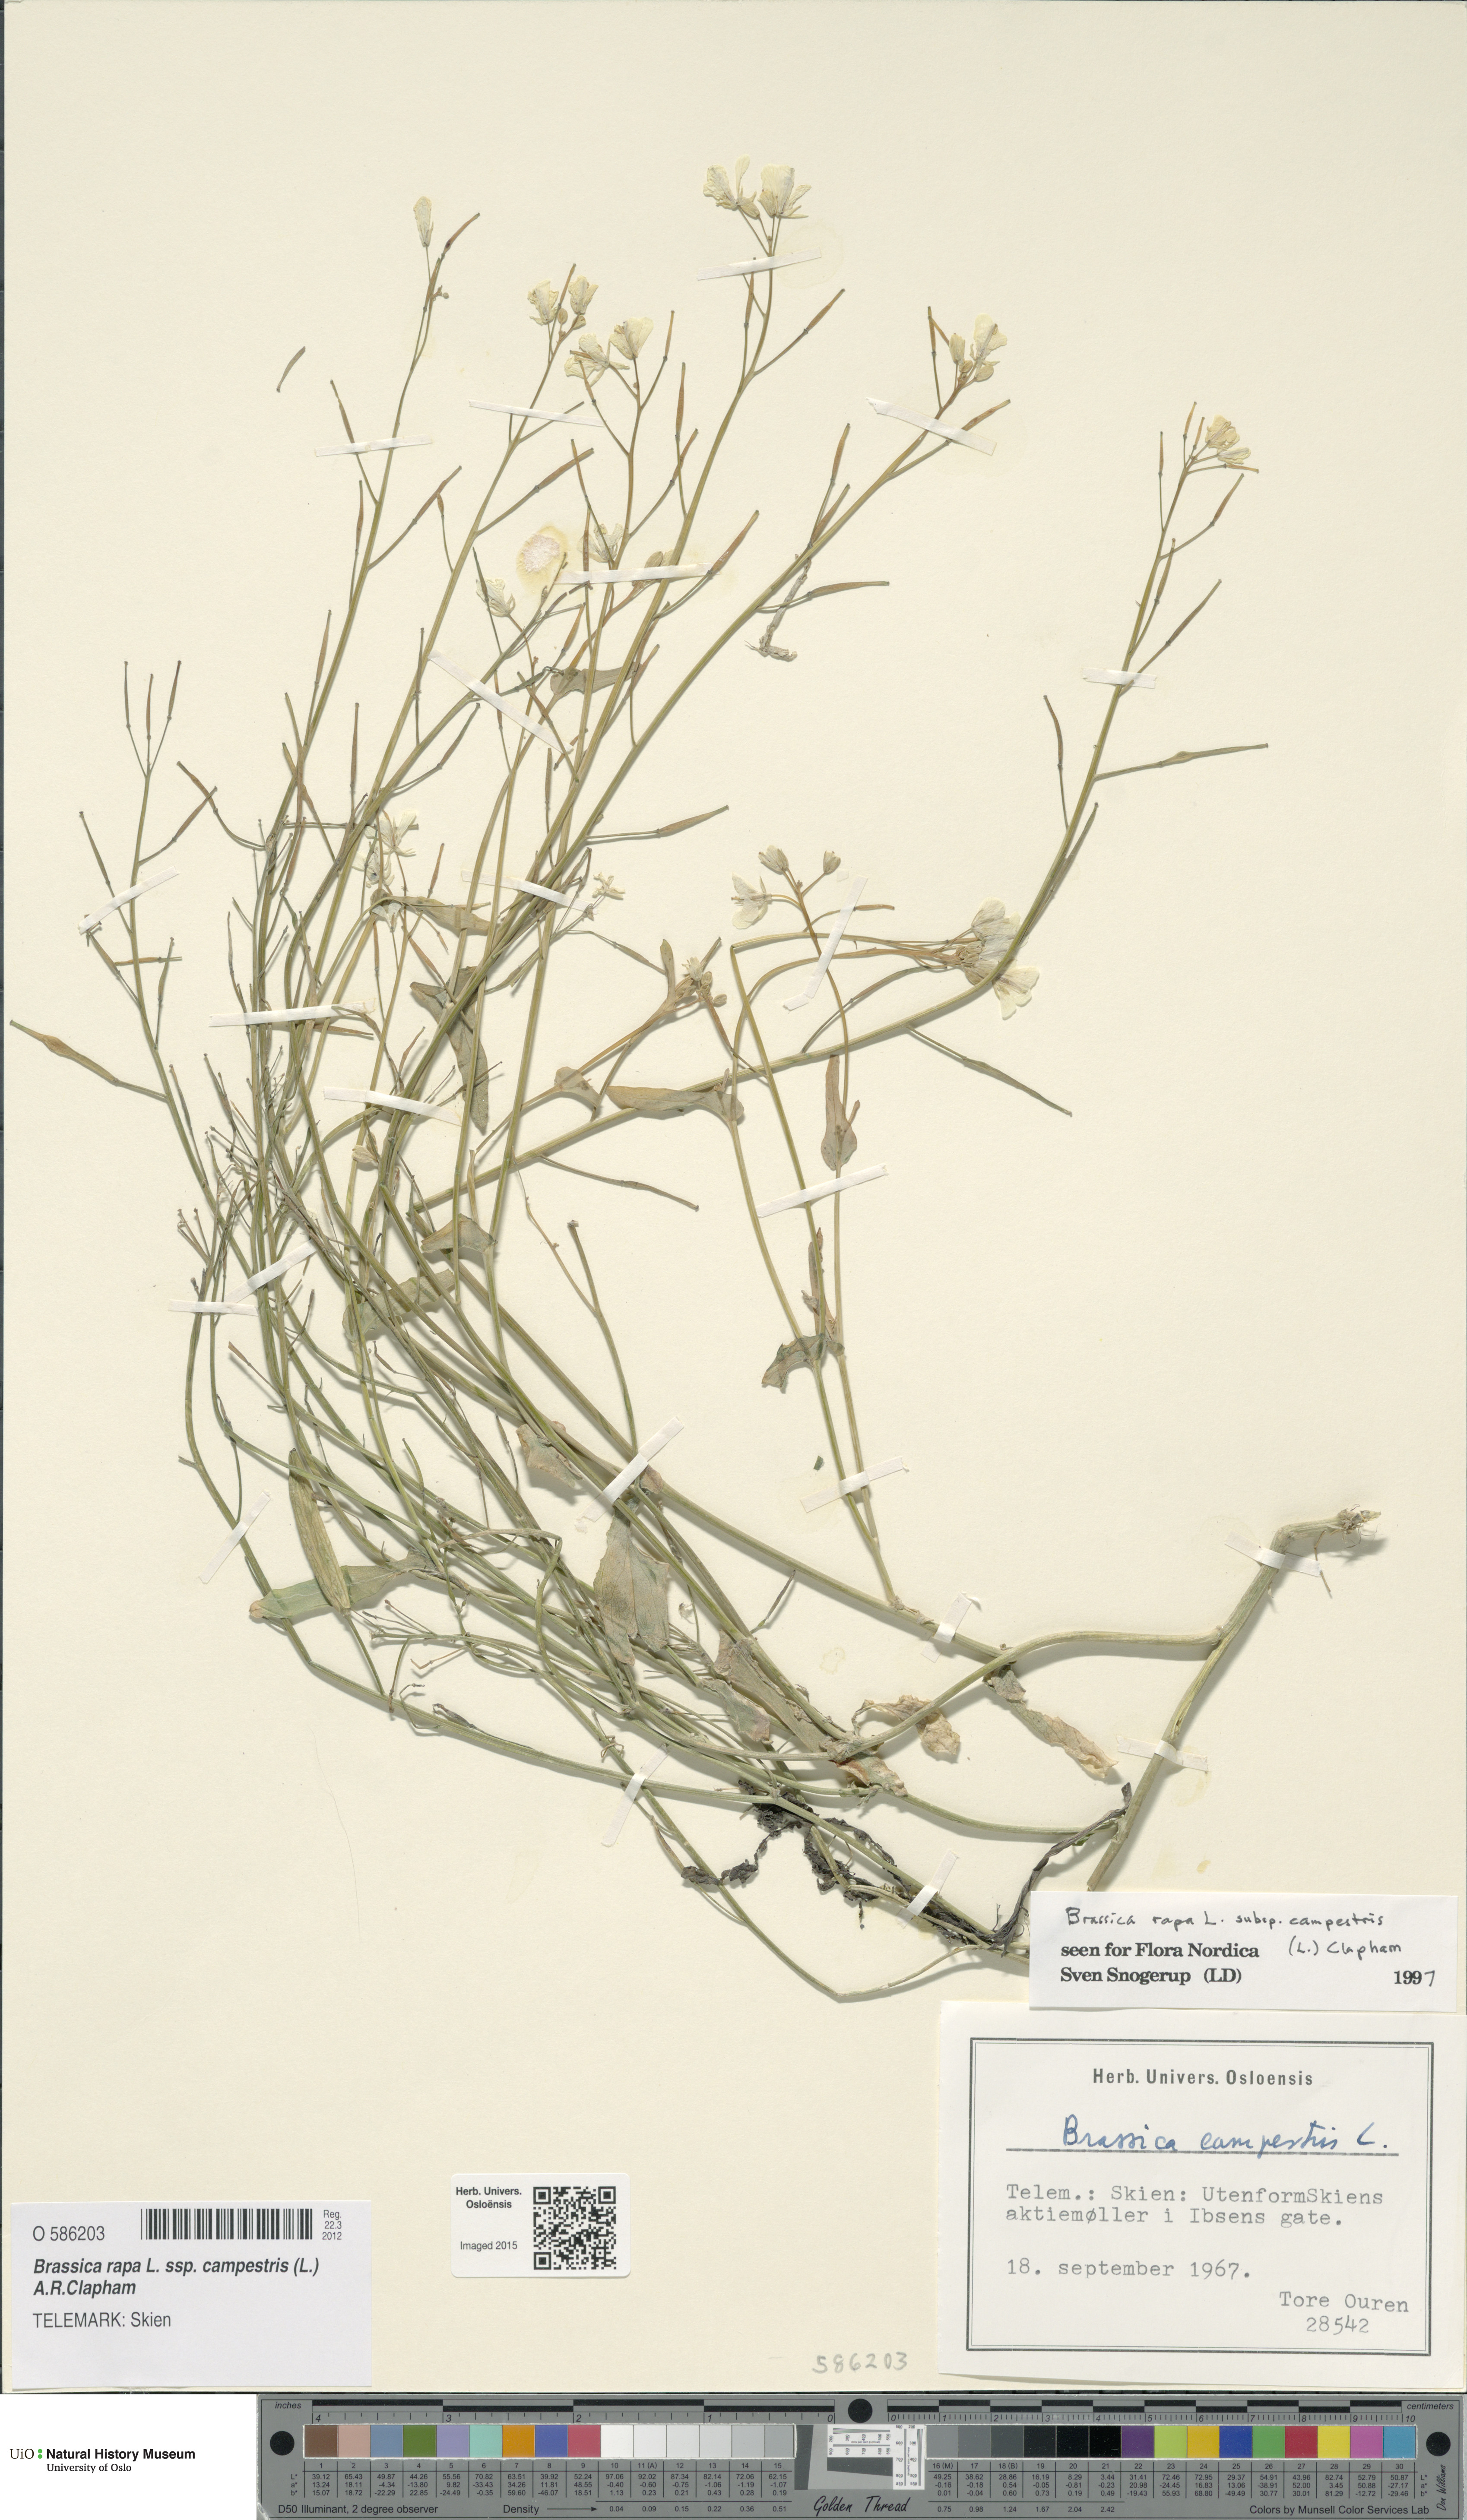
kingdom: Plantae
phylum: Tracheophyta
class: Magnoliopsida
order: Brassicales
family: Brassicaceae
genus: Brassica
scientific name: Brassica rapa
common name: Field mustard
